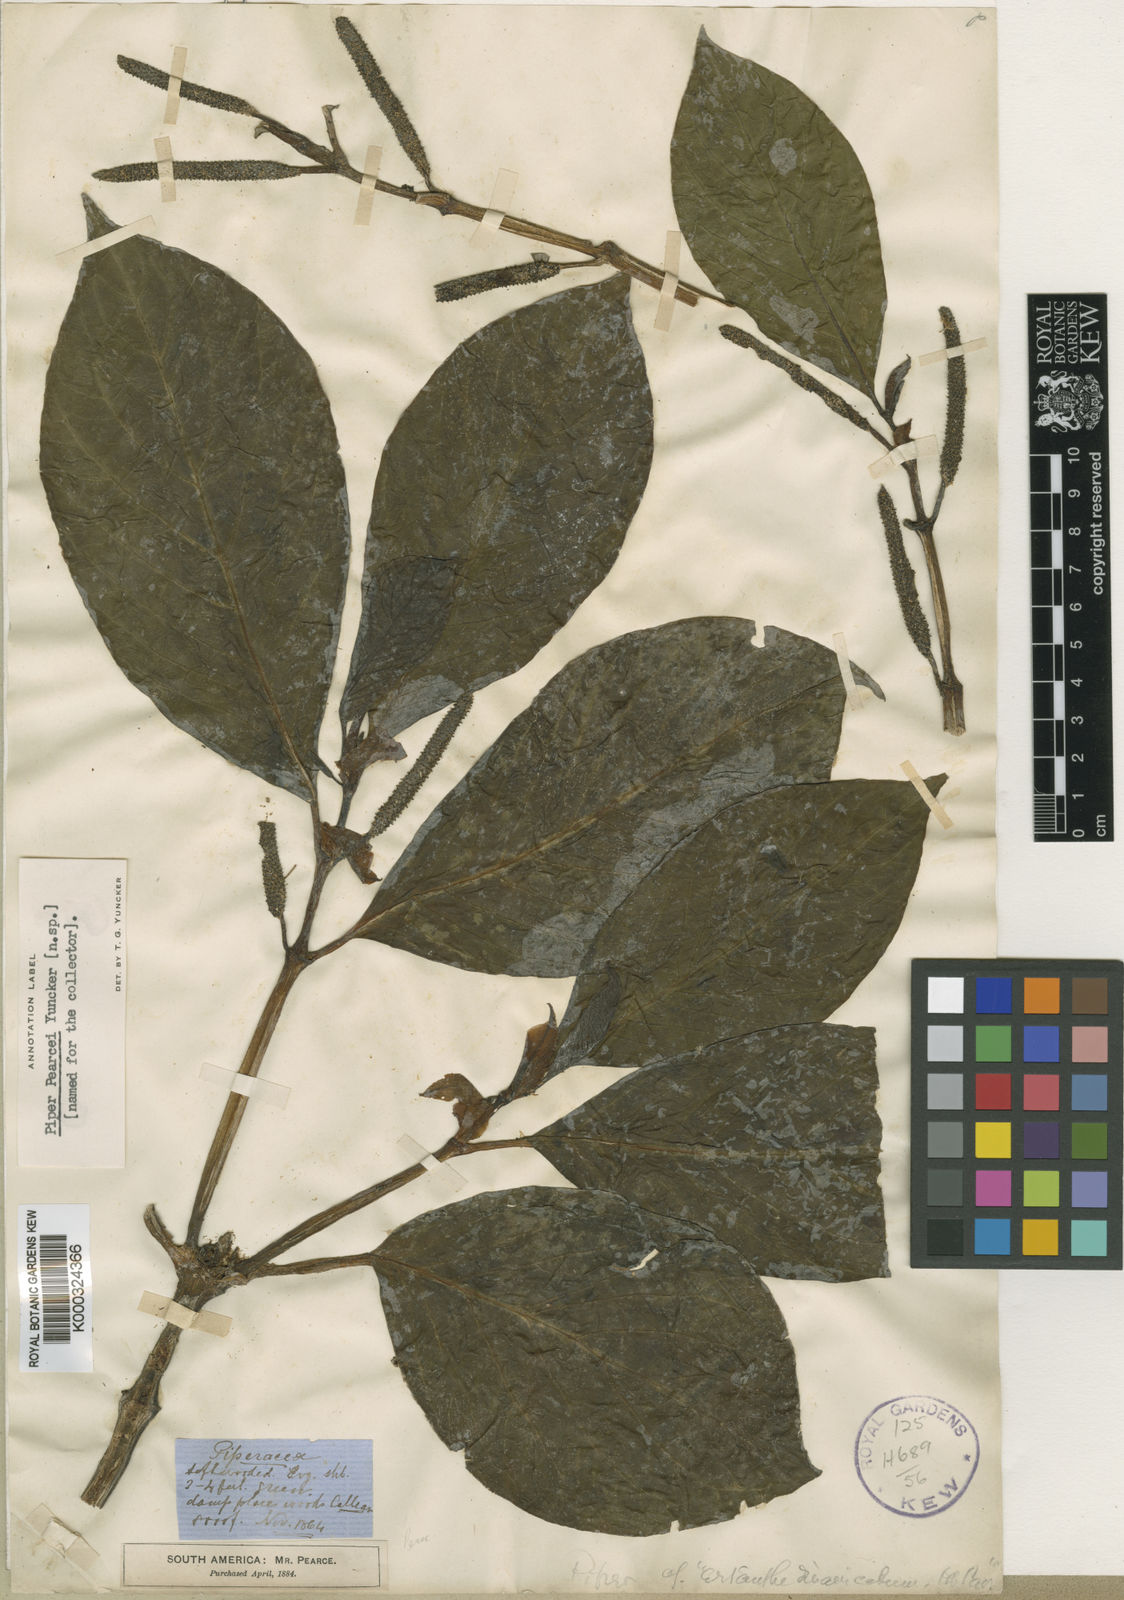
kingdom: Plantae
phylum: Tracheophyta
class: Magnoliopsida
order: Piperales
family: Piperaceae
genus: Piper
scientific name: Piper pearcei
